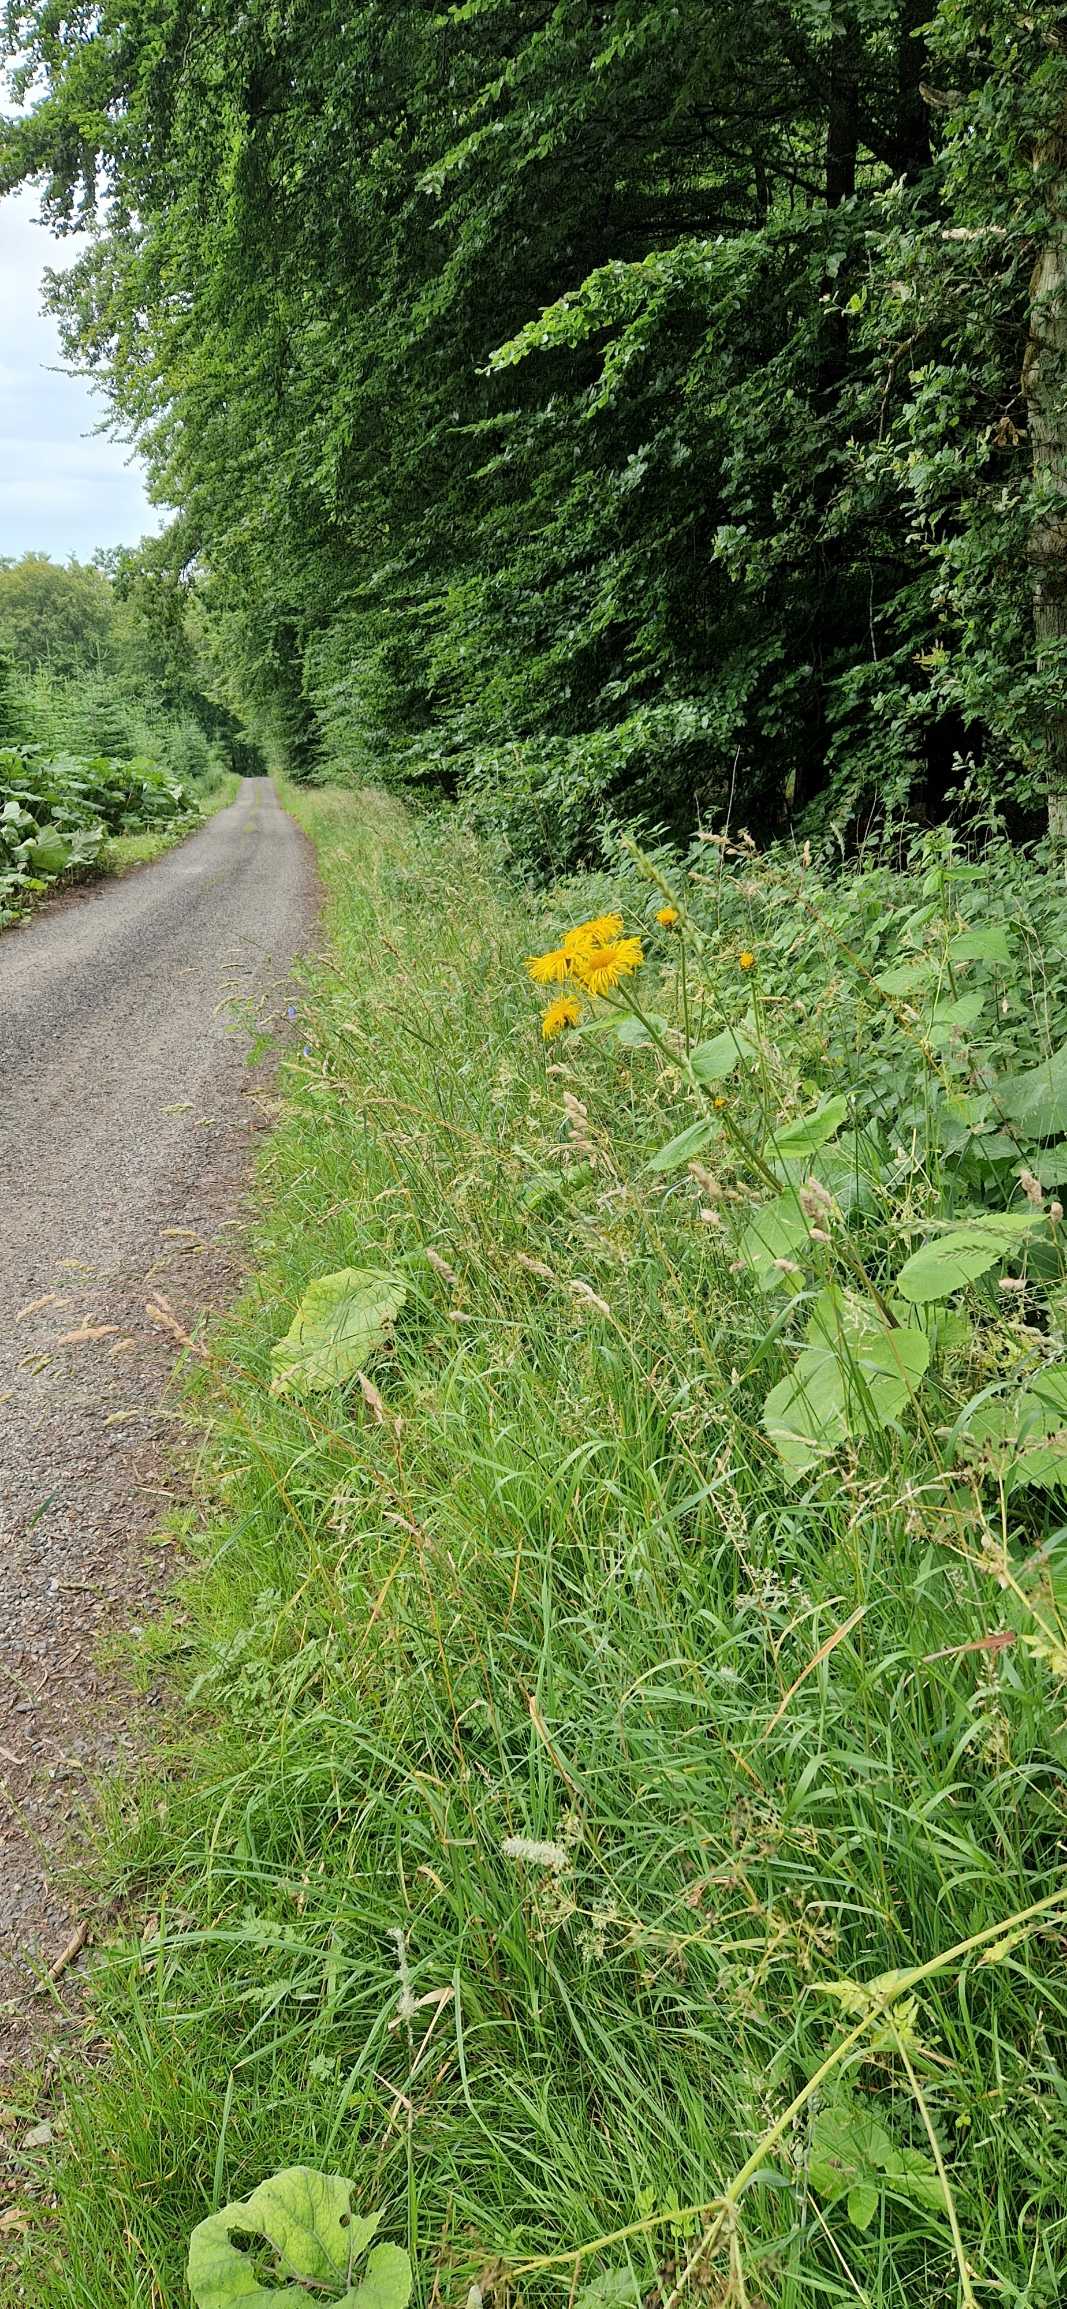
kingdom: Plantae
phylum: Tracheophyta
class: Magnoliopsida
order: Asterales
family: Asteraceae
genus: Telekia
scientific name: Telekia speciosa
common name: Tusindstråle
